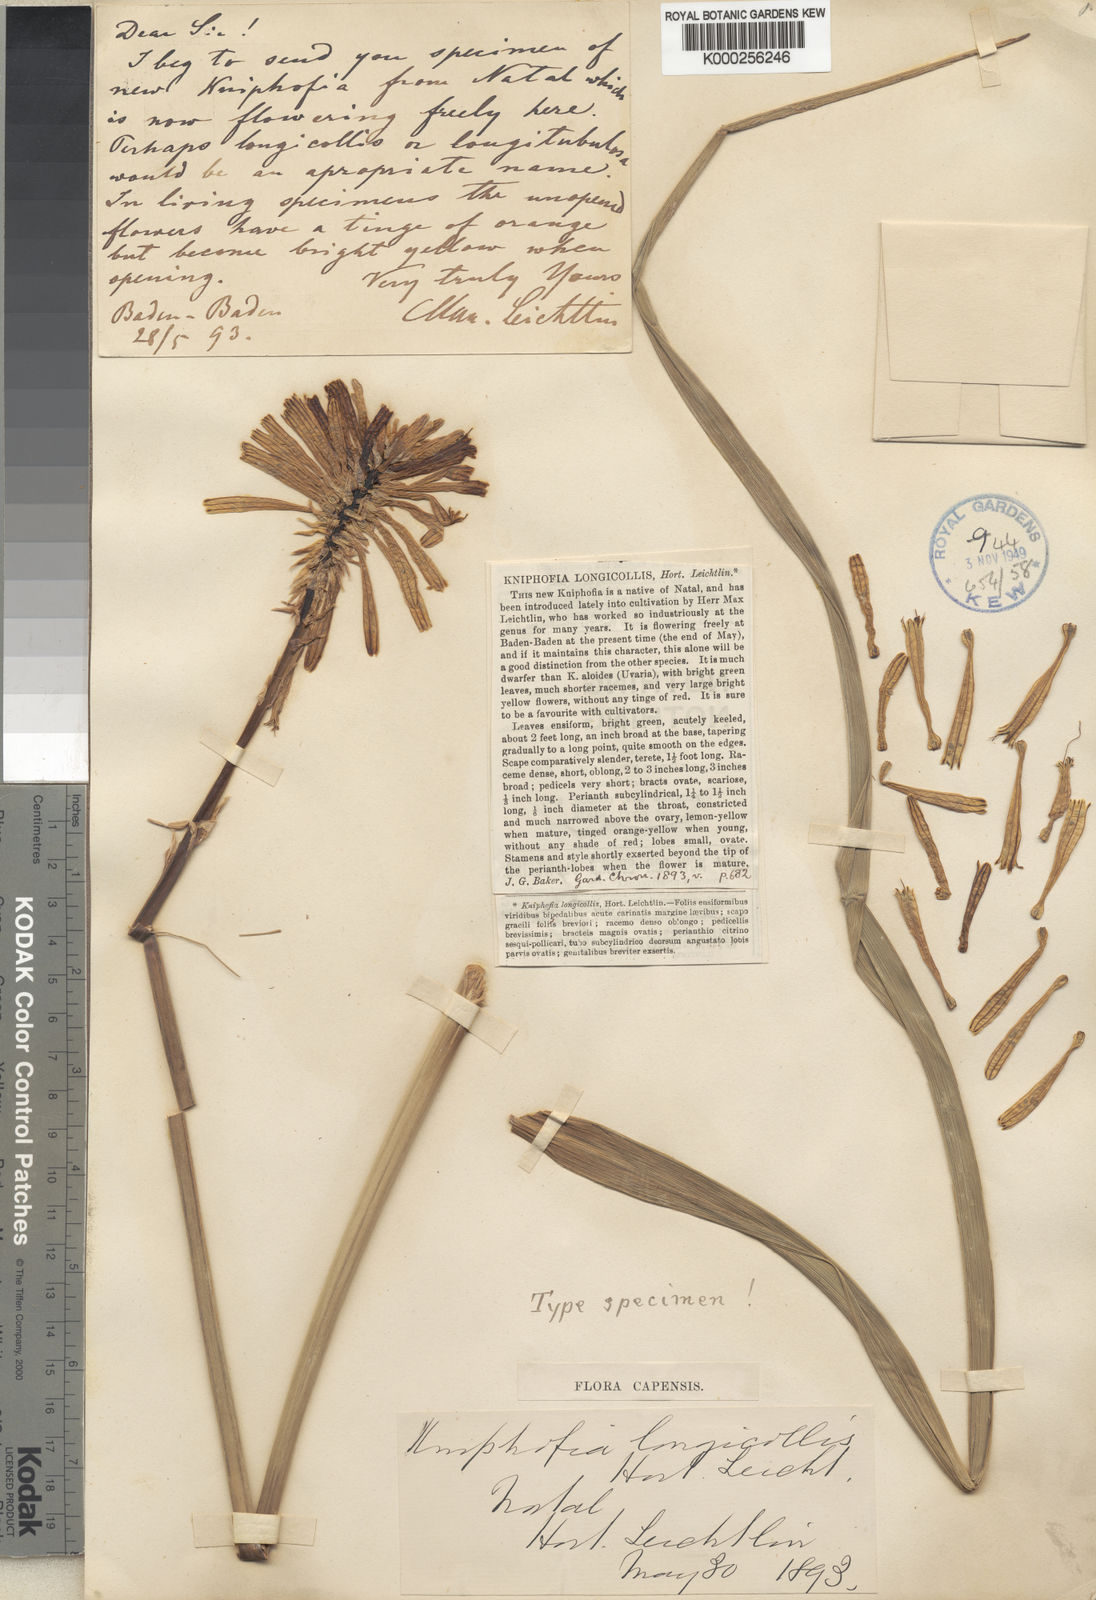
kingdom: Plantae
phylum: Tracheophyta
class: Liliopsida
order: Asparagales
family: Asphodelaceae
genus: Kniphofia
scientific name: Kniphofia rooperi
